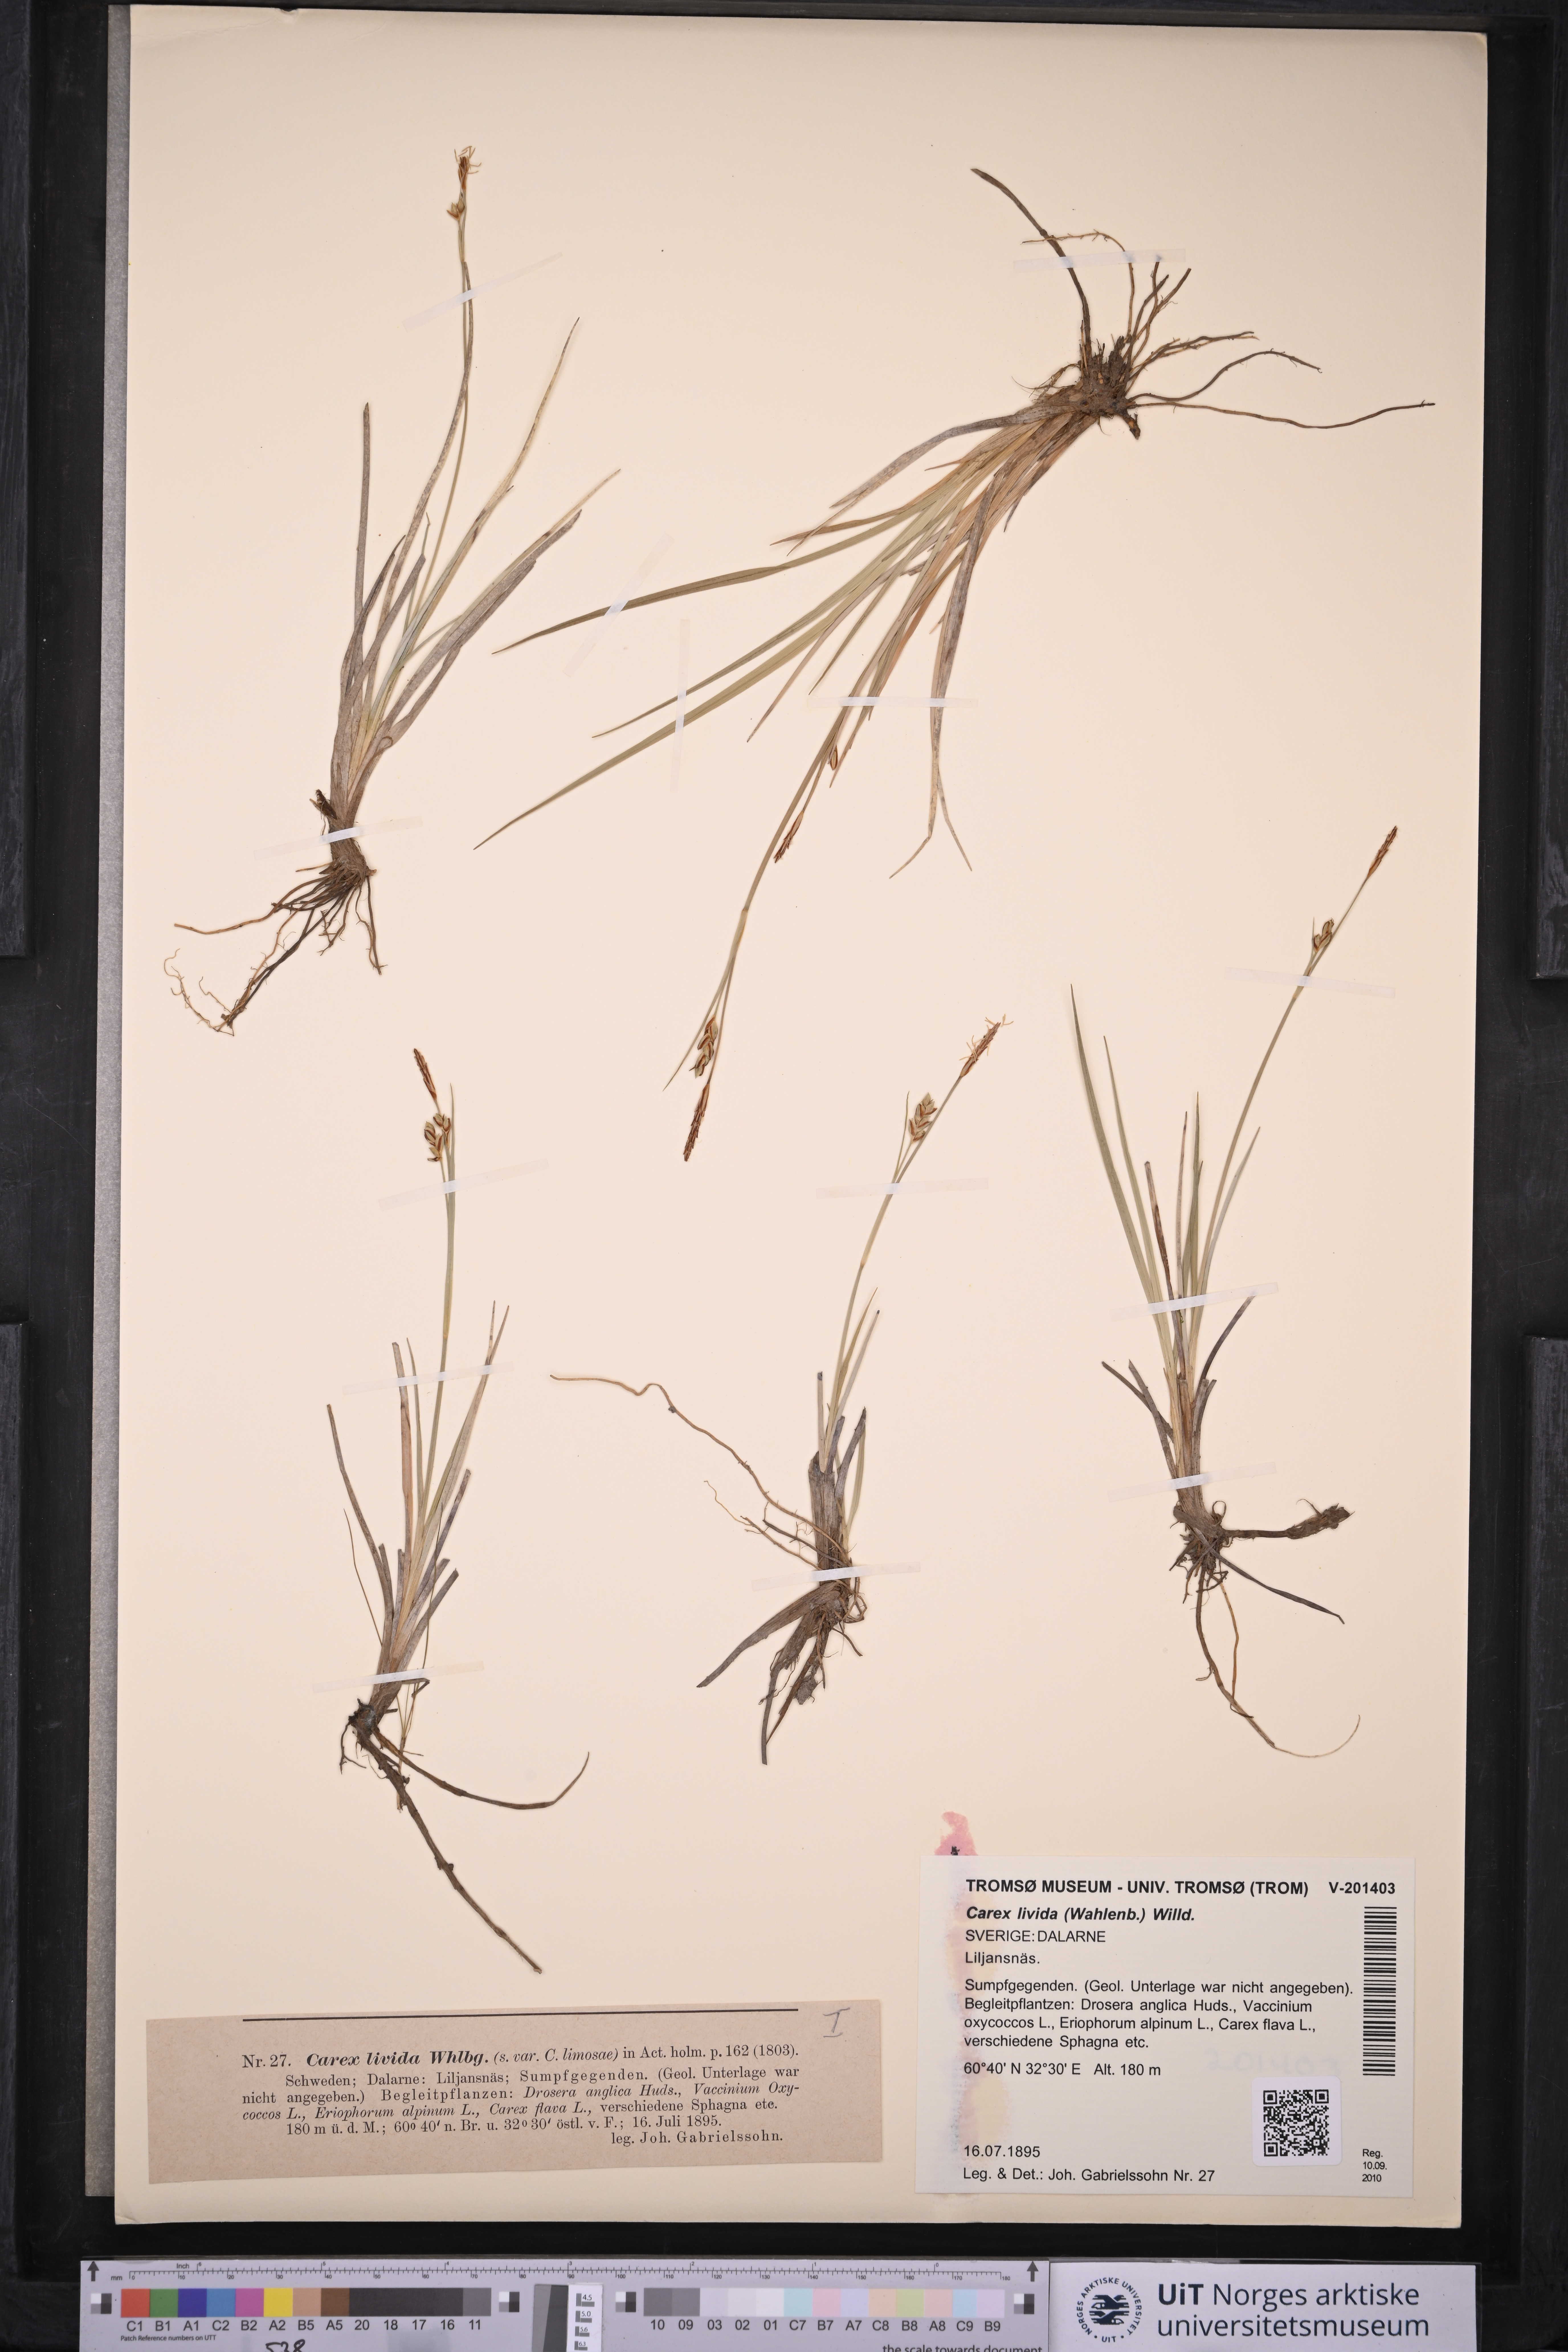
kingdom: Plantae
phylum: Tracheophyta
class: Liliopsida
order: Poales
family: Cyperaceae
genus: Carex
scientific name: Carex livida
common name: Livid sedge
